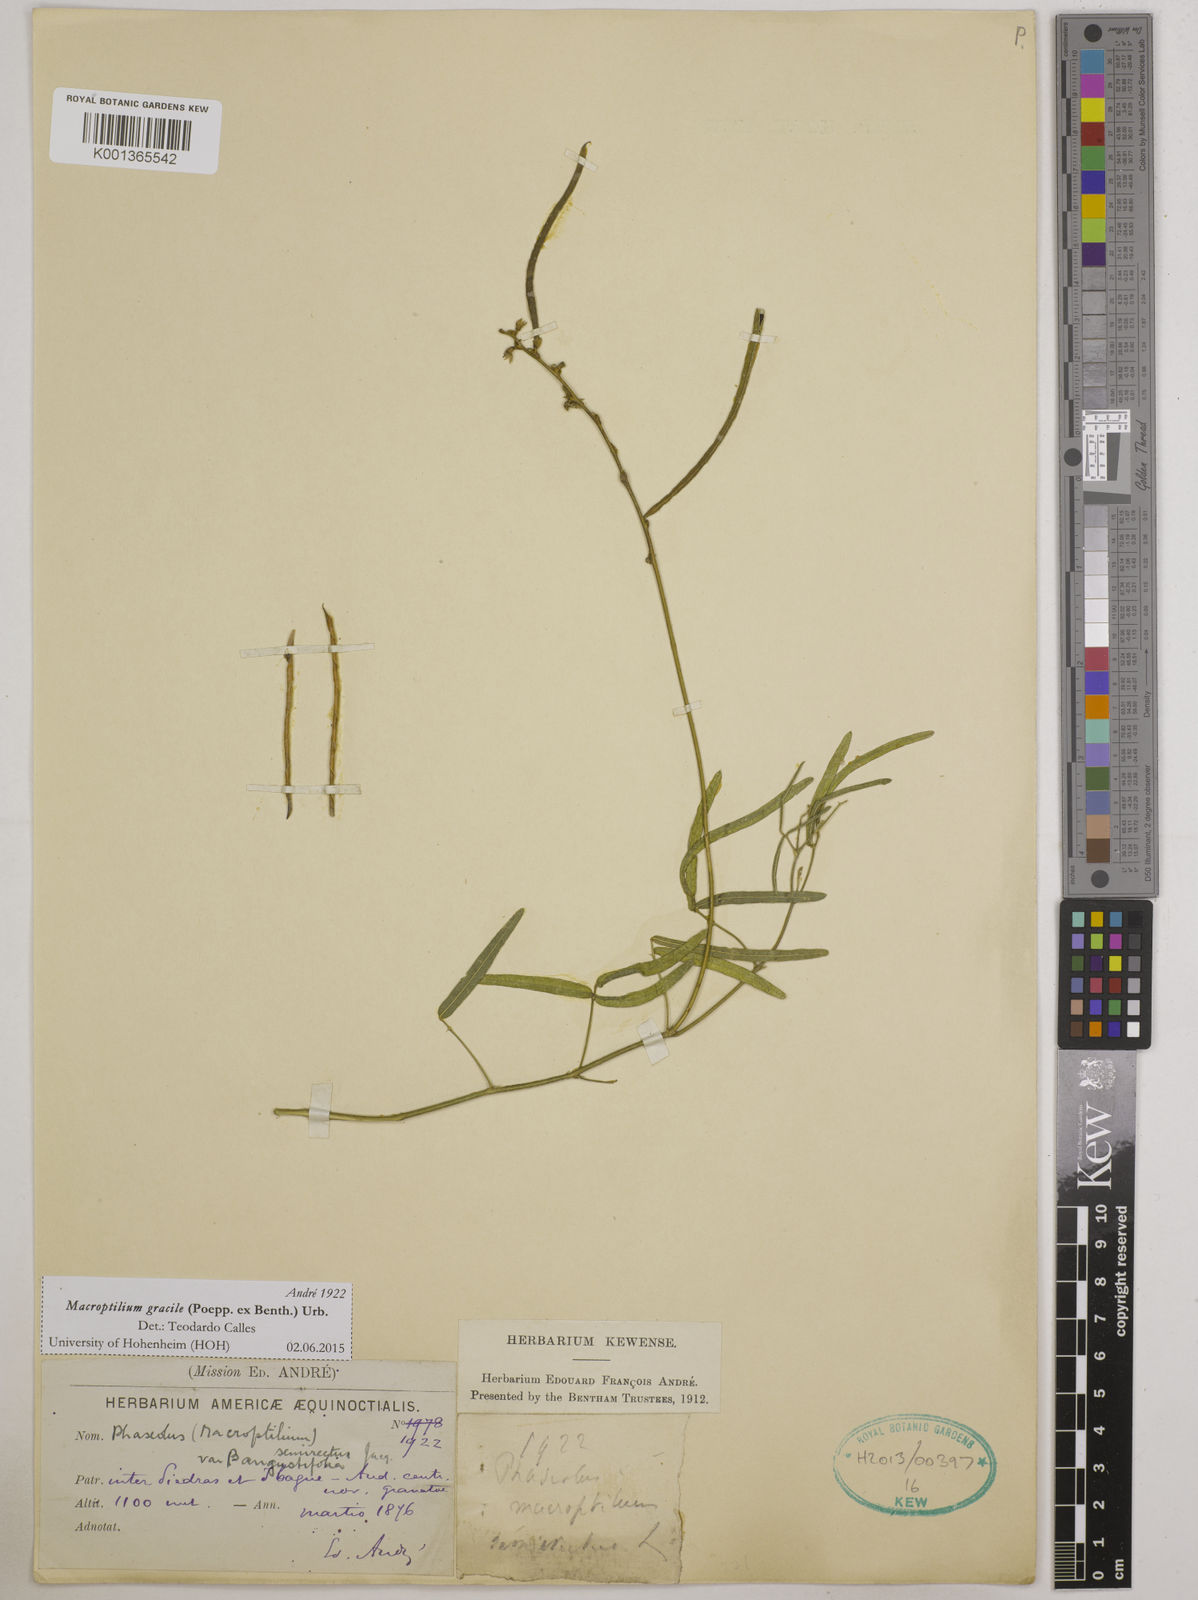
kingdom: Plantae
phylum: Tracheophyta
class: Magnoliopsida
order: Fabales
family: Fabaceae
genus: Macroptilium
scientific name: Macroptilium gracile
